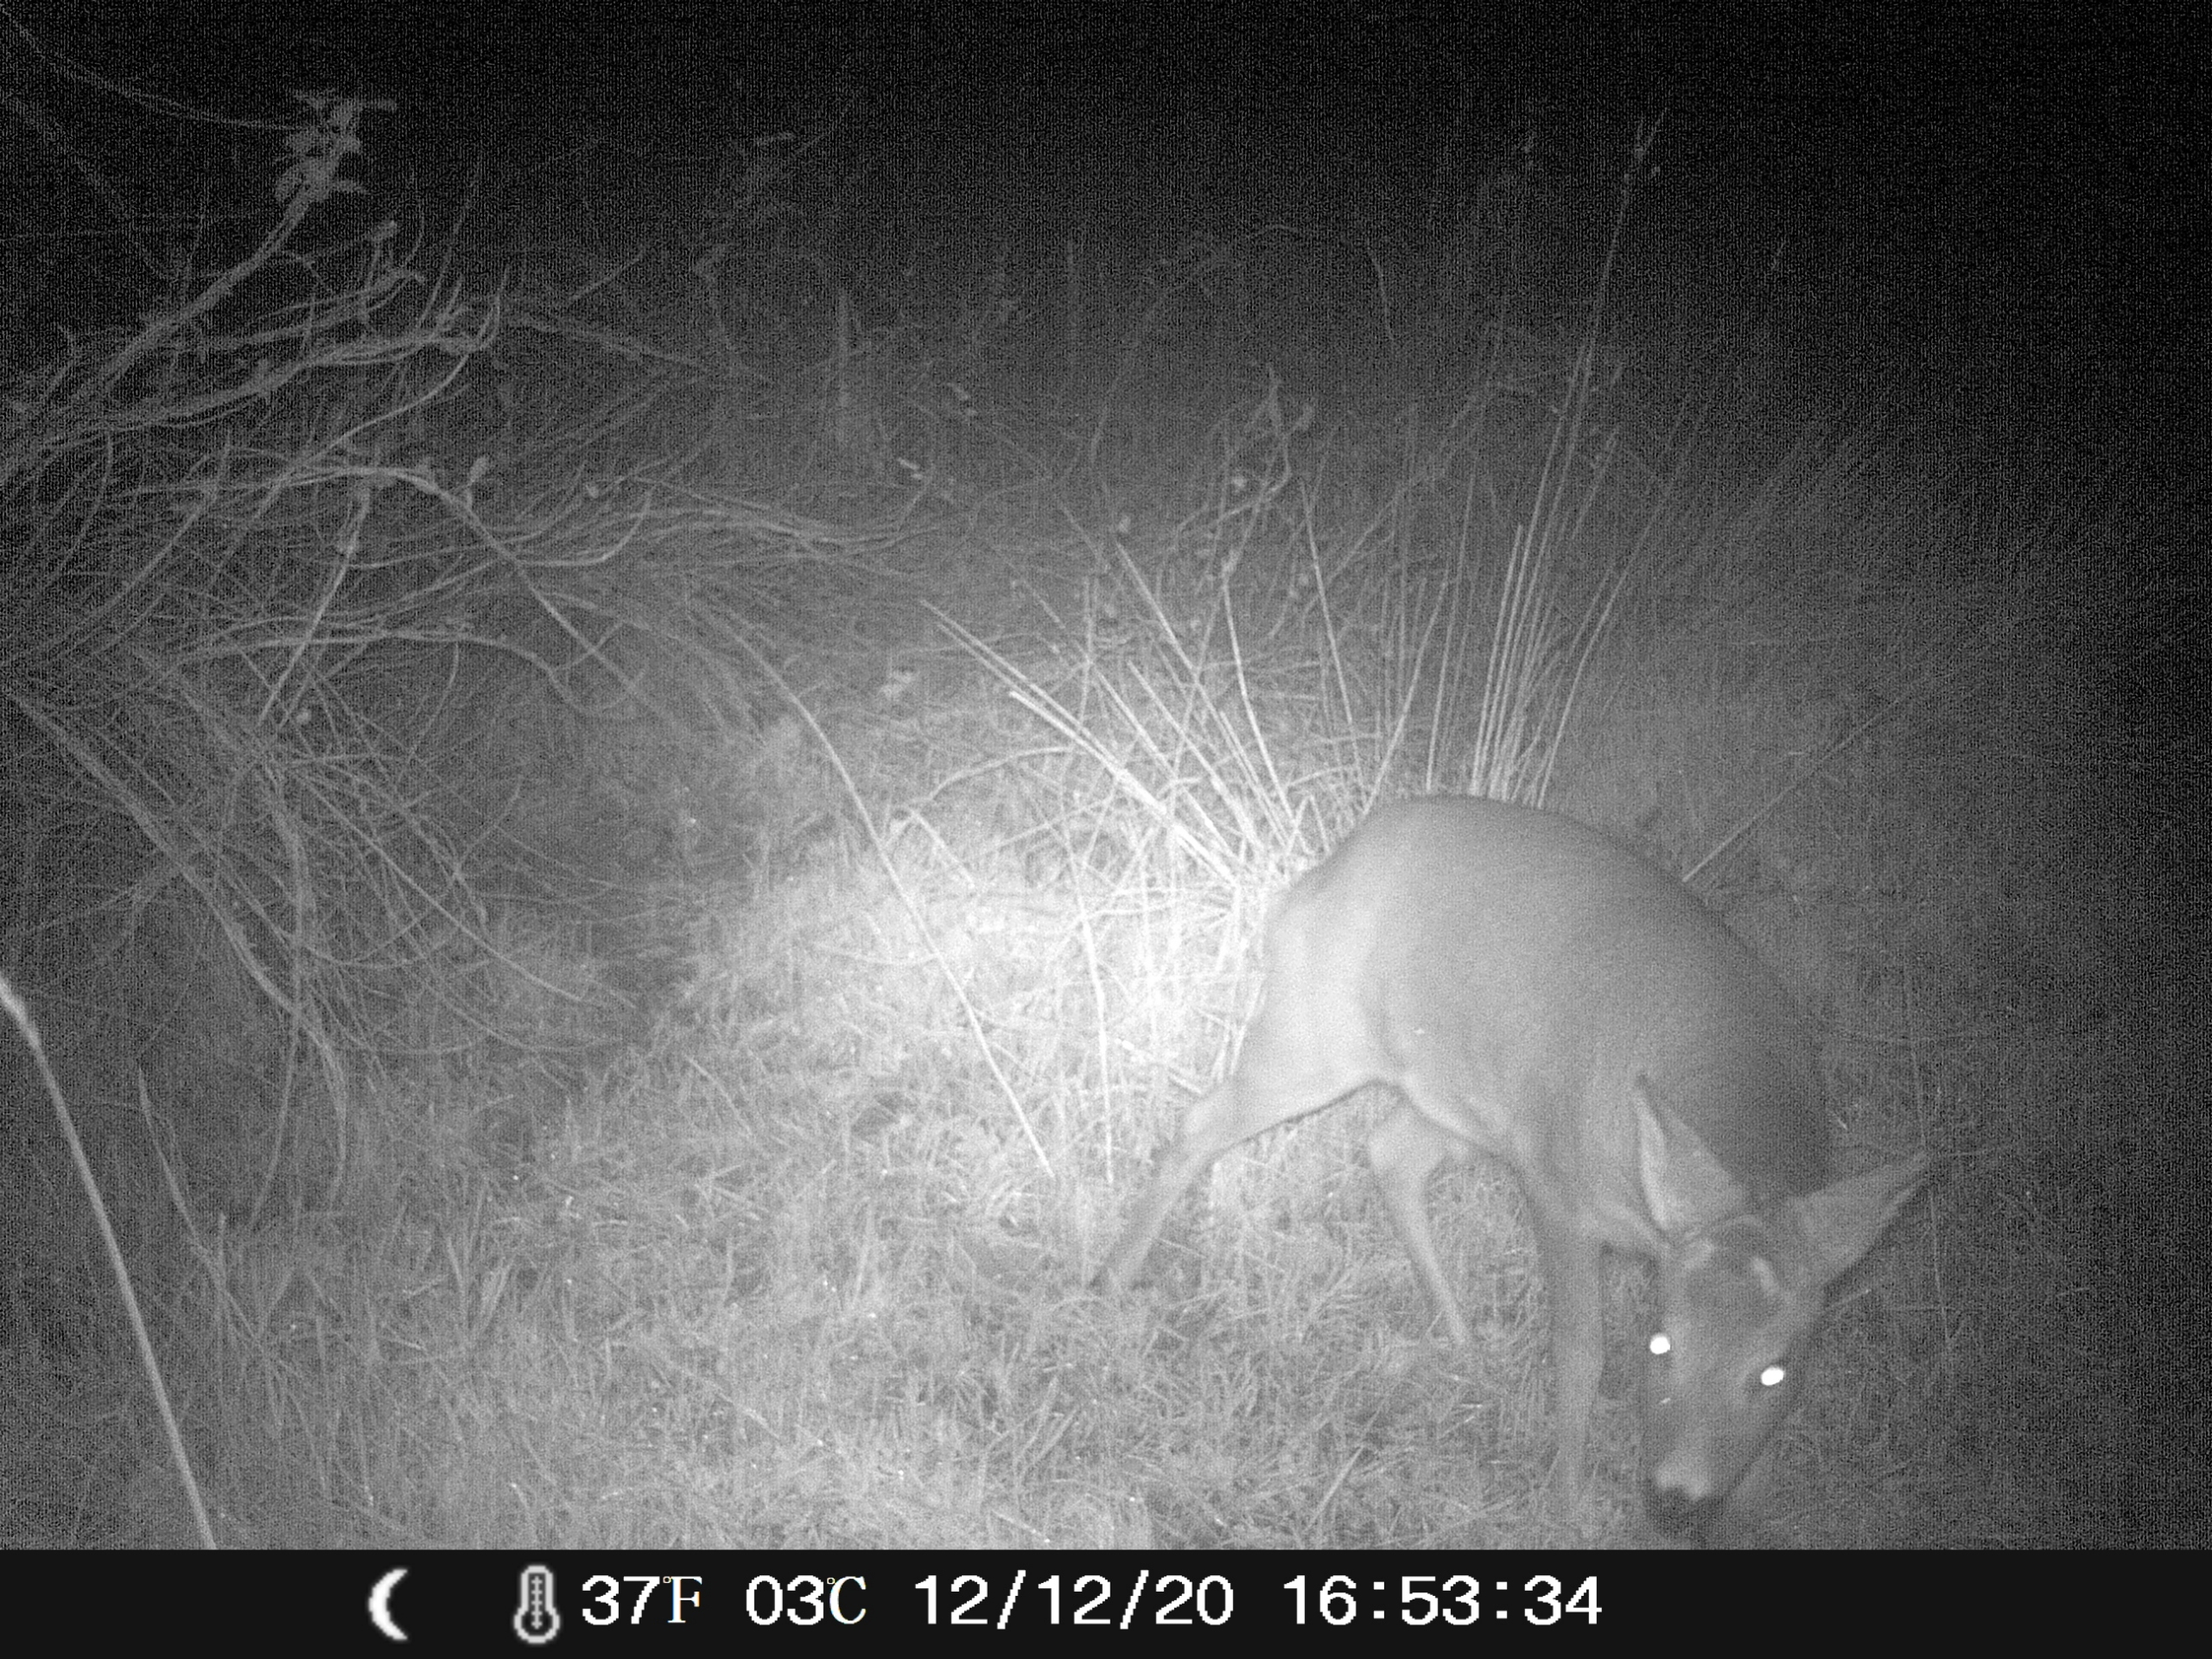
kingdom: Animalia
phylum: Chordata
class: Mammalia
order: Artiodactyla
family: Cervidae
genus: Capreolus
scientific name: Capreolus capreolus
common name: Rådyr
